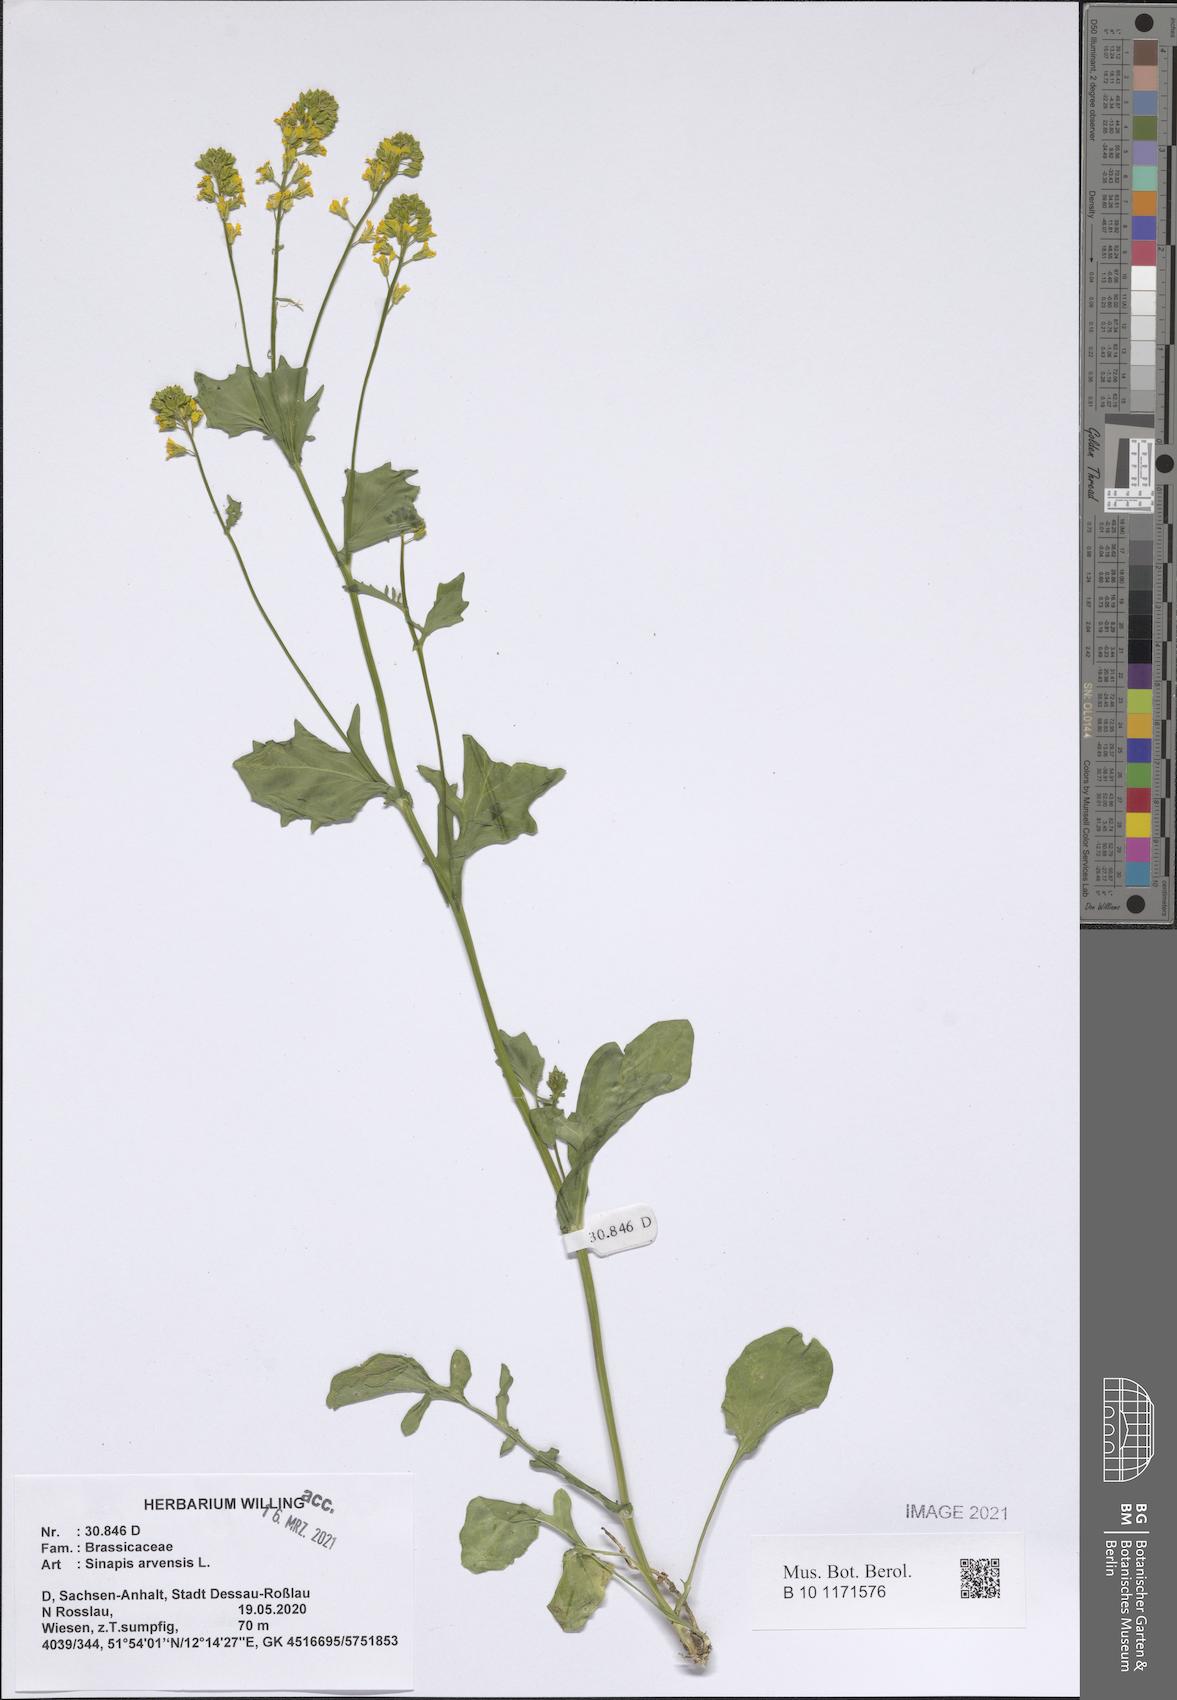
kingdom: Plantae
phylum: Tracheophyta
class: Magnoliopsida
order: Brassicales
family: Brassicaceae
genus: Sinapis
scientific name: Sinapis arvensis
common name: Charlock
